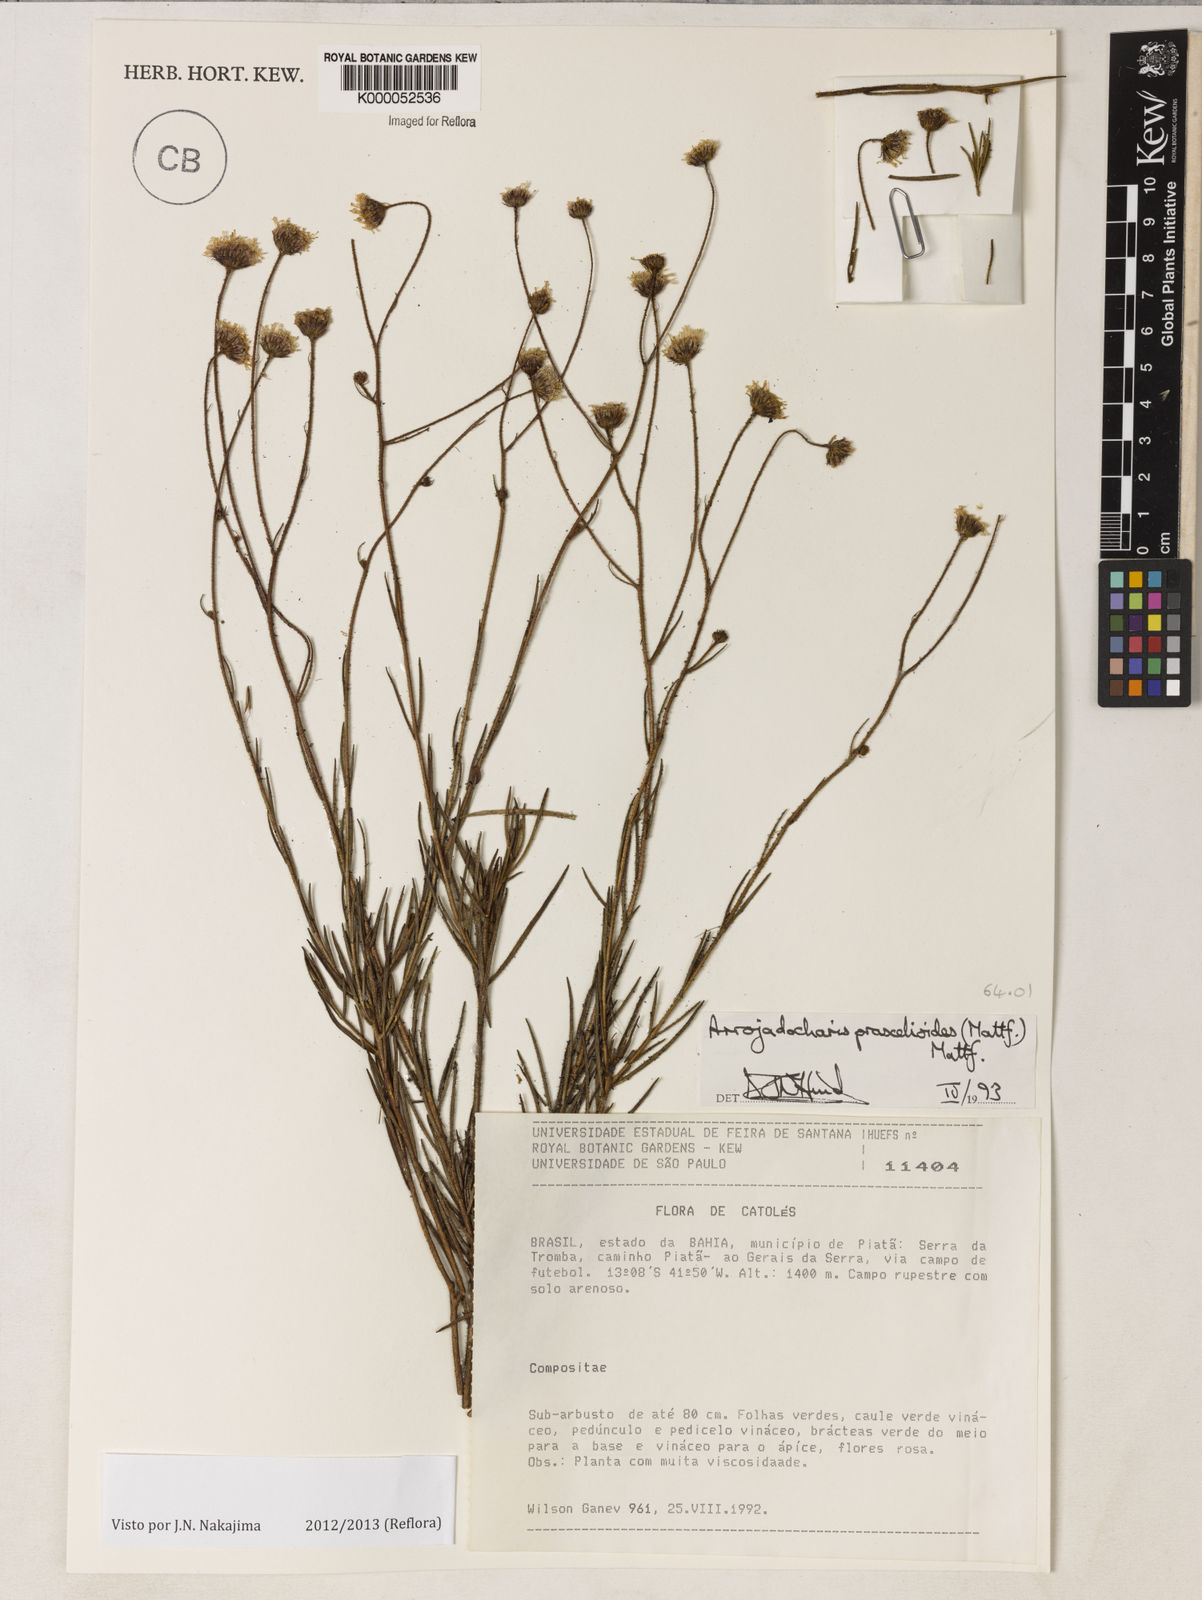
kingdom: Plantae
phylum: Tracheophyta
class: Magnoliopsida
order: Asterales
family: Asteraceae
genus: Arrojadocharis
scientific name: Arrojadocharis praxeloides
